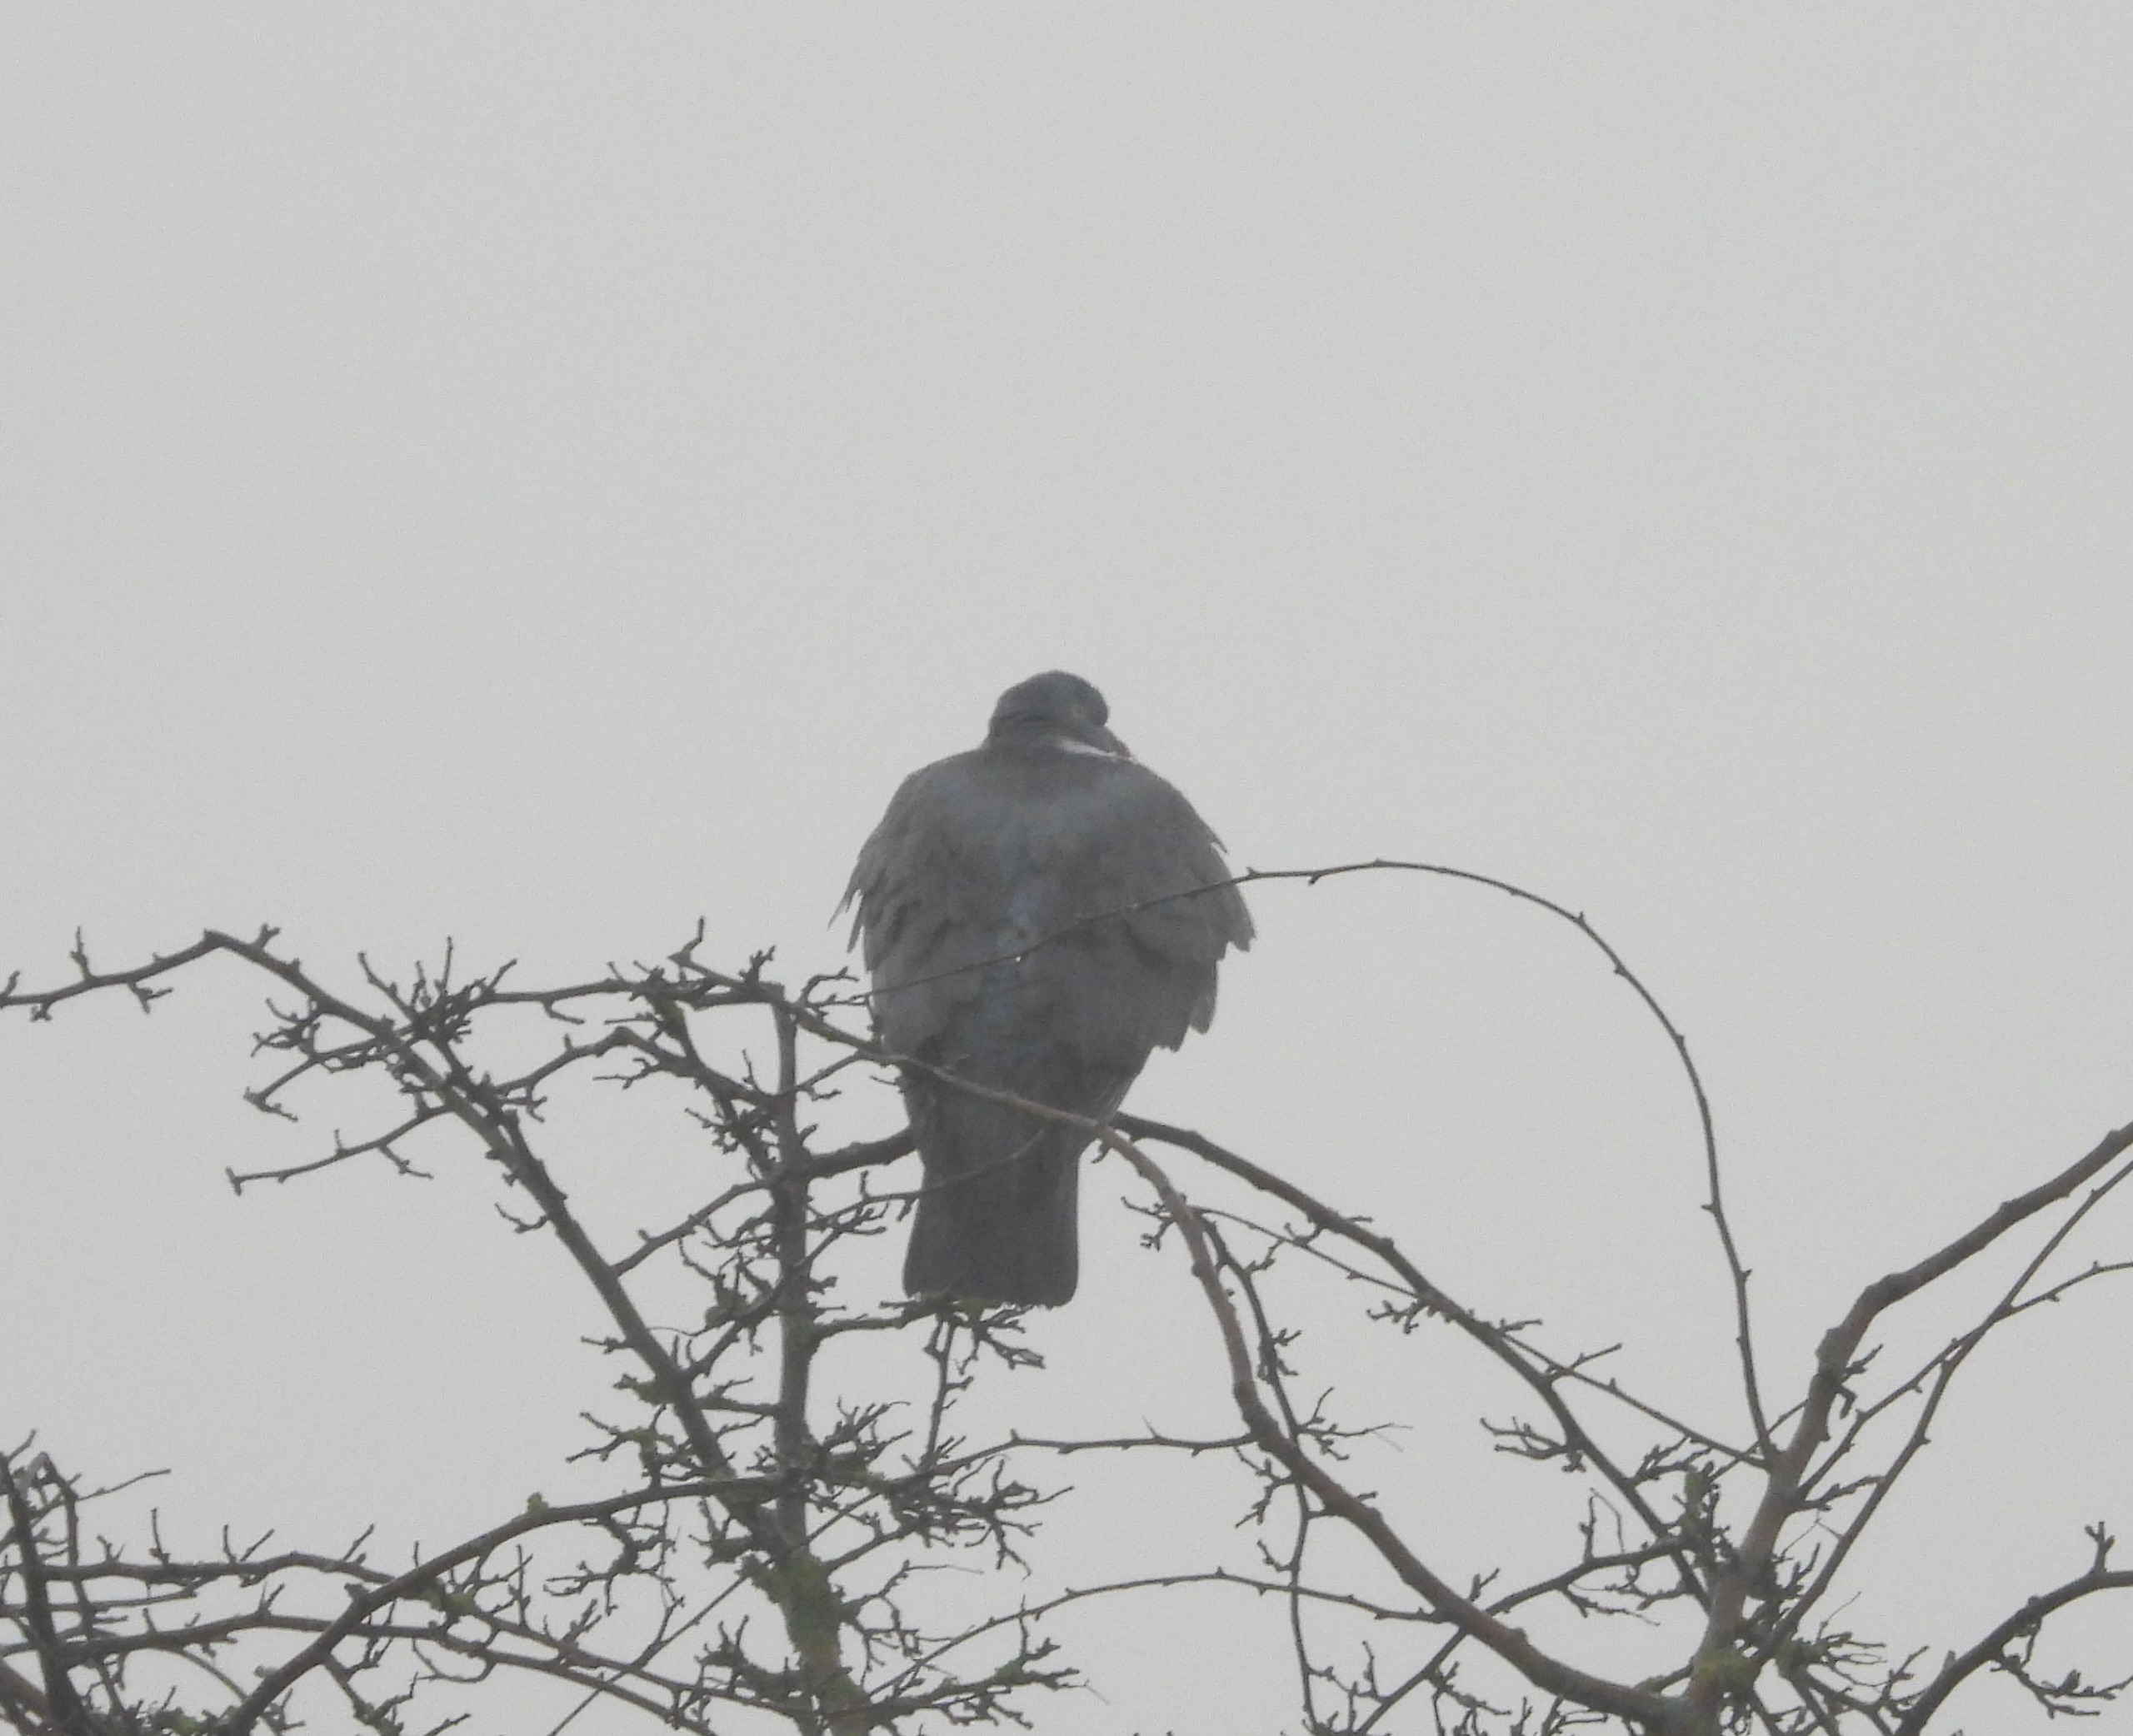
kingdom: Animalia
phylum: Chordata
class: Aves
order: Columbiformes
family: Columbidae
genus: Columba
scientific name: Columba palumbus
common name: Ringdue
